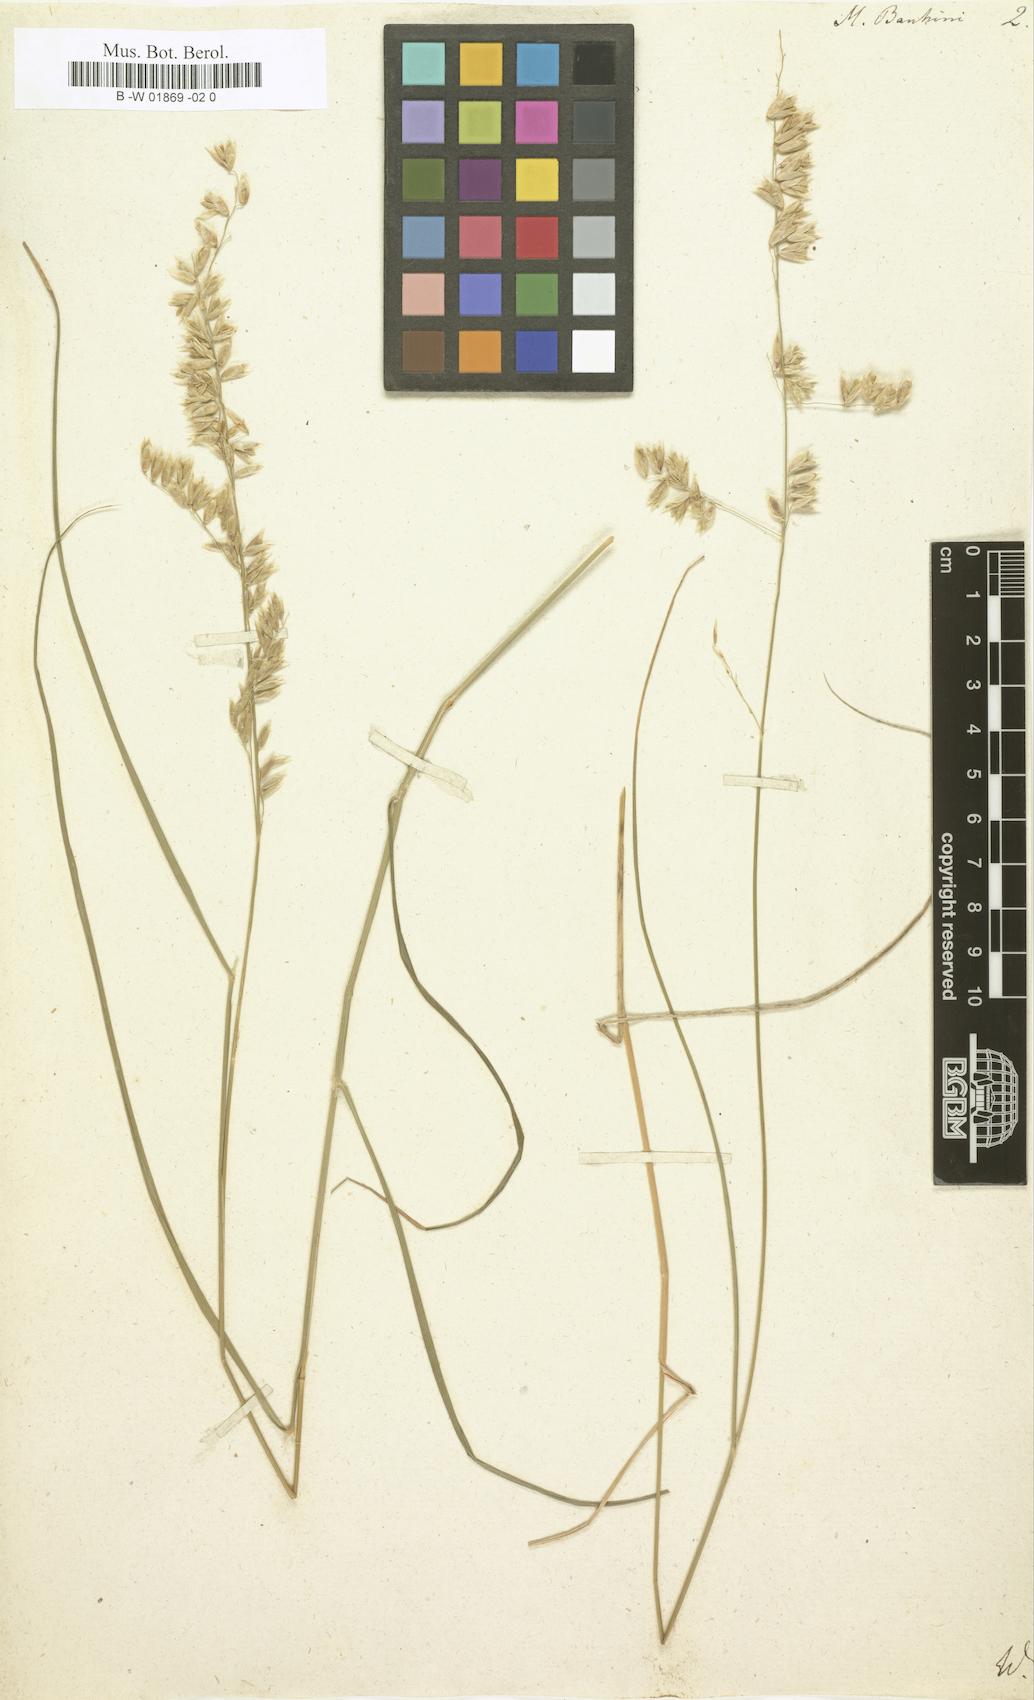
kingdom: Plantae
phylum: Tracheophyta
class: Liliopsida
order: Poales
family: Poaceae
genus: Melica
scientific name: Melica bauhini
